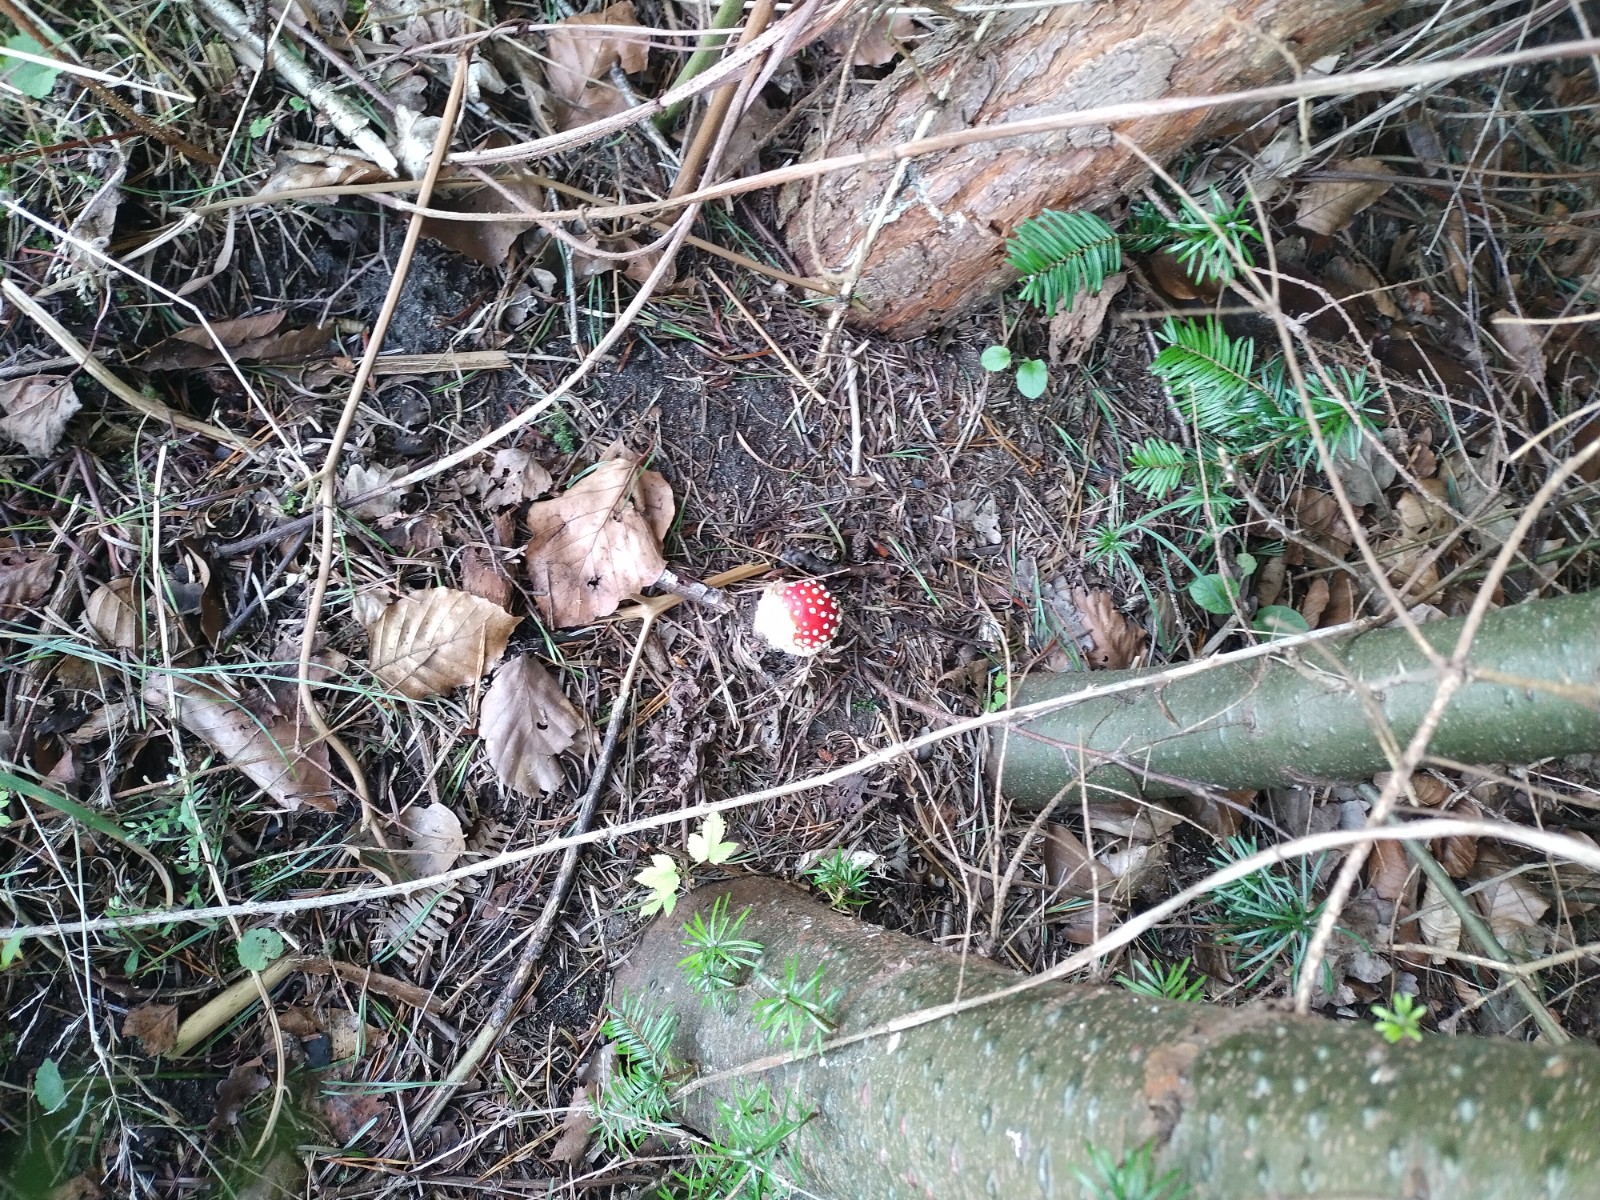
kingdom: Fungi
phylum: Basidiomycota
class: Agaricomycetes
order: Agaricales
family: Amanitaceae
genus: Amanita
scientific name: Amanita muscaria
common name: rød fluesvamp
